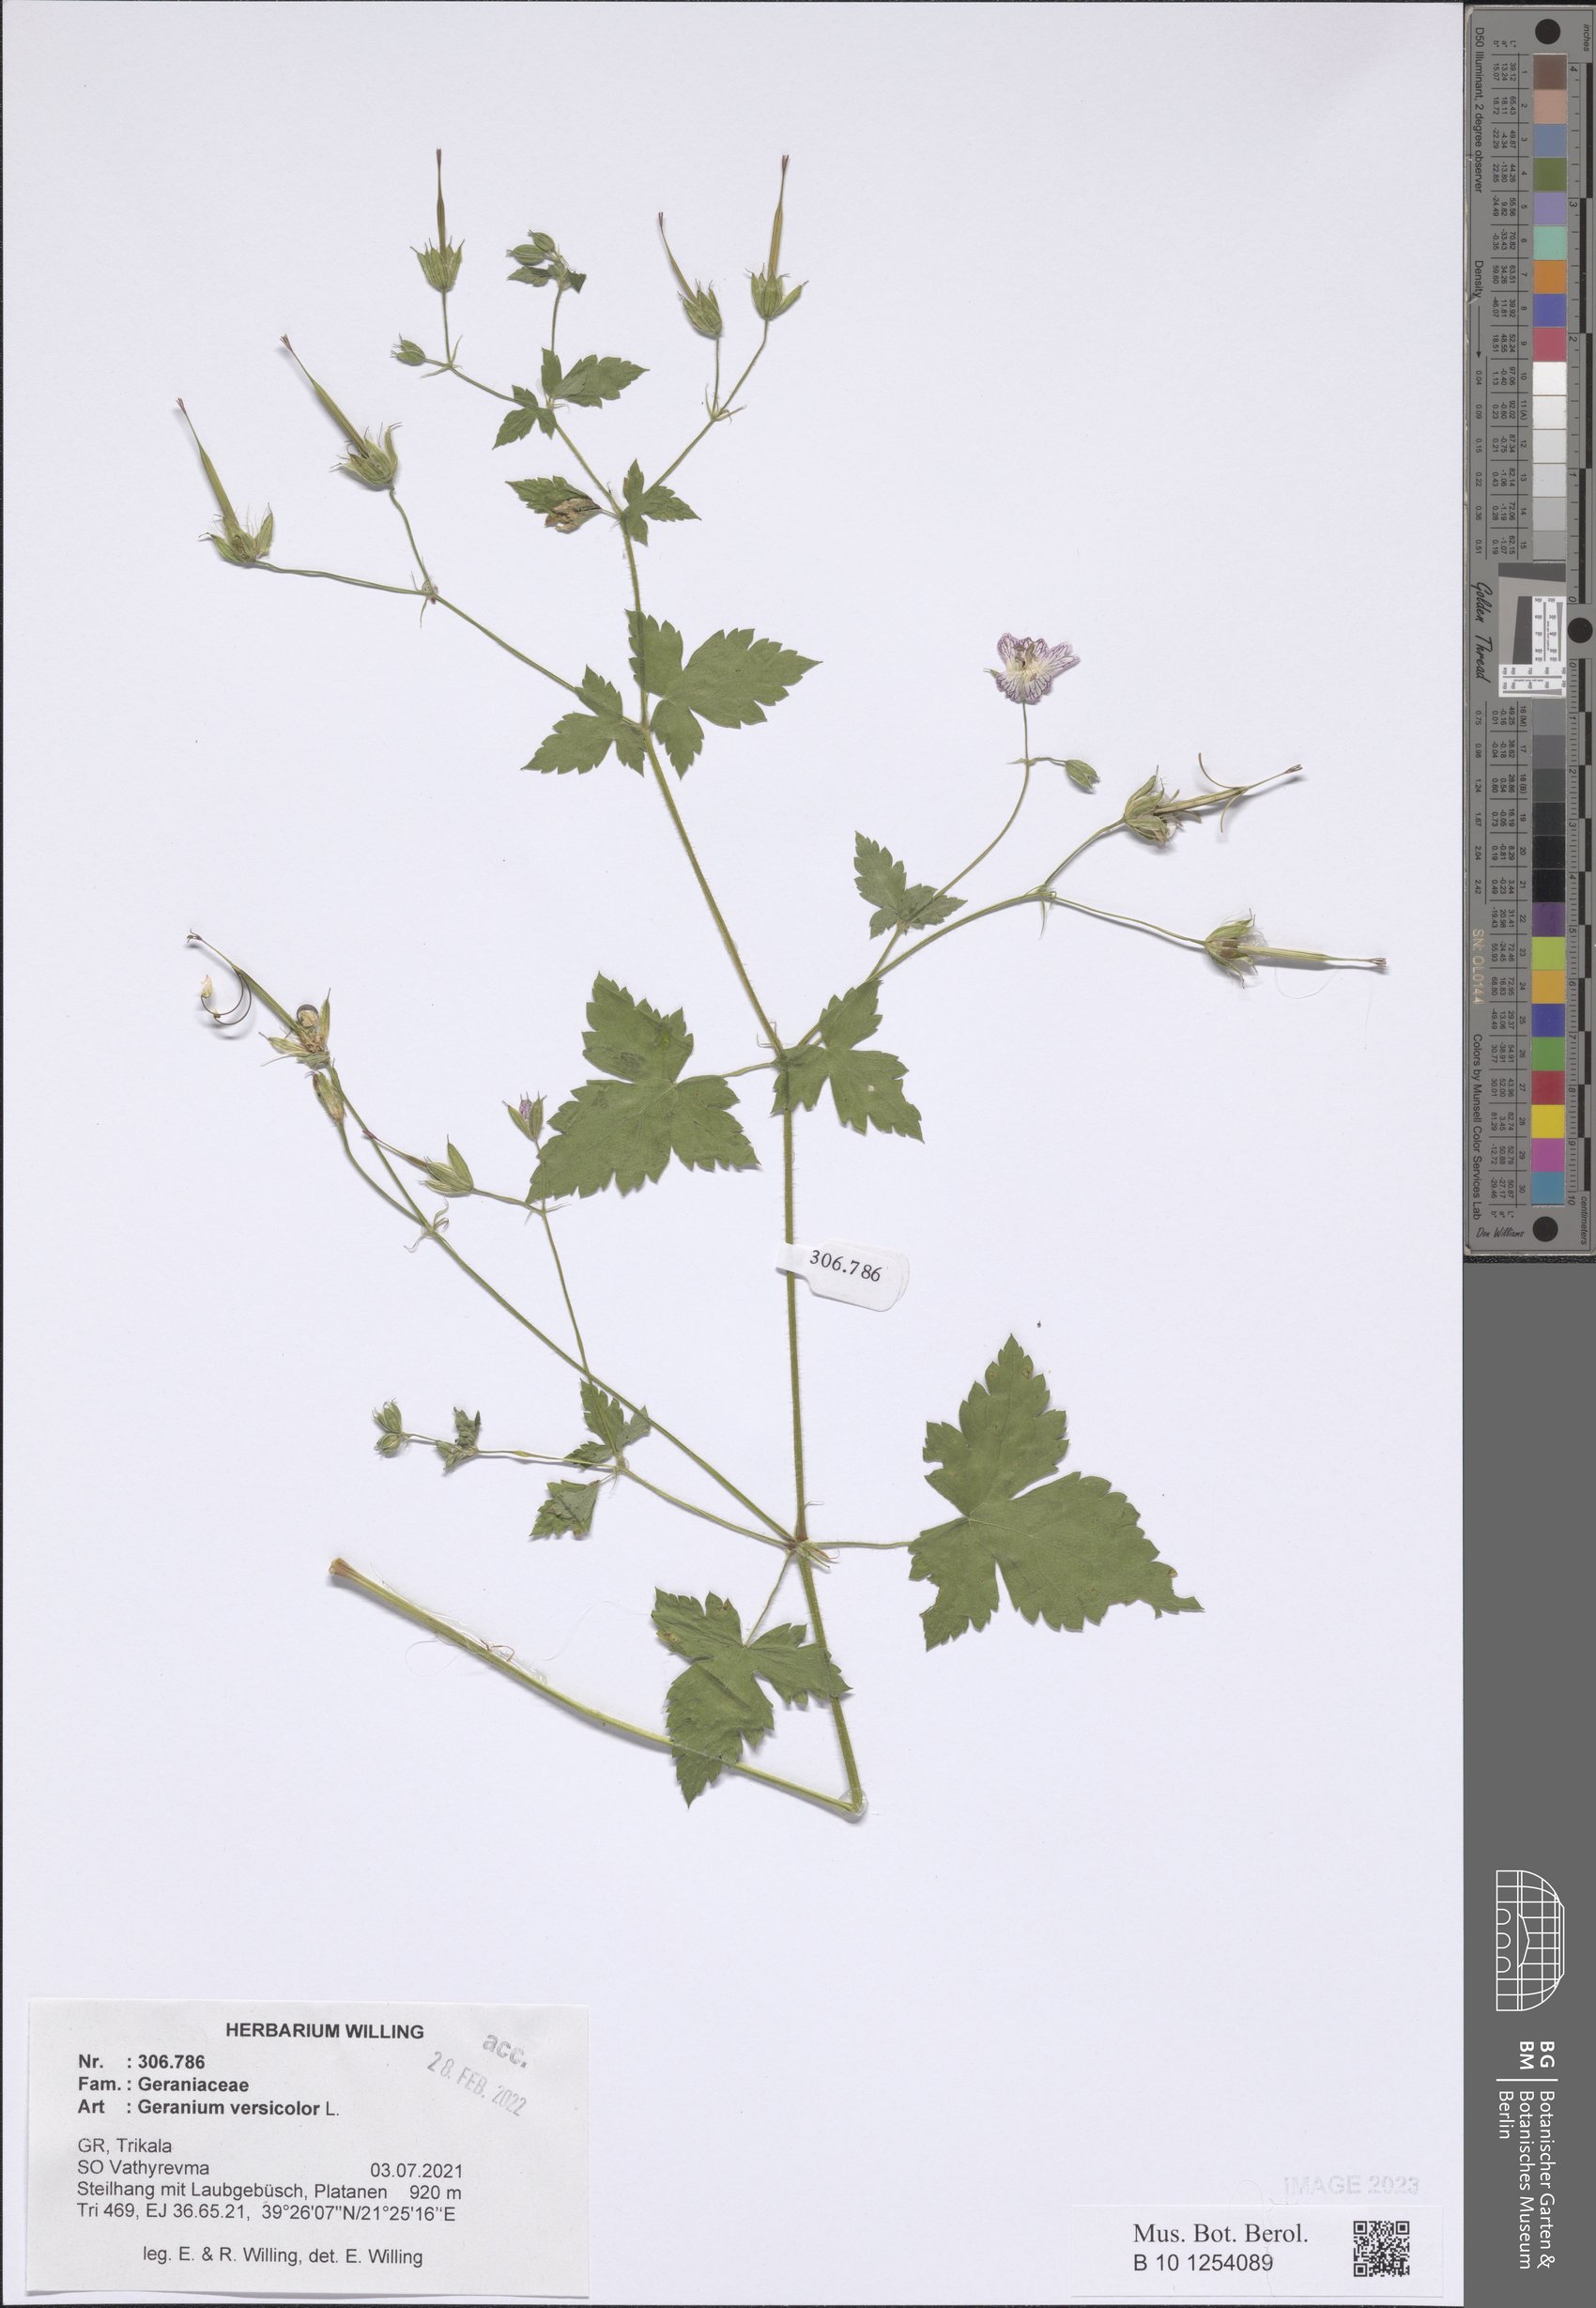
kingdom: Plantae
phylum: Tracheophyta
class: Magnoliopsida
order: Geraniales
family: Geraniaceae
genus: Geranium
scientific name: Geranium versicolor
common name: Pencilled crane's-bill
